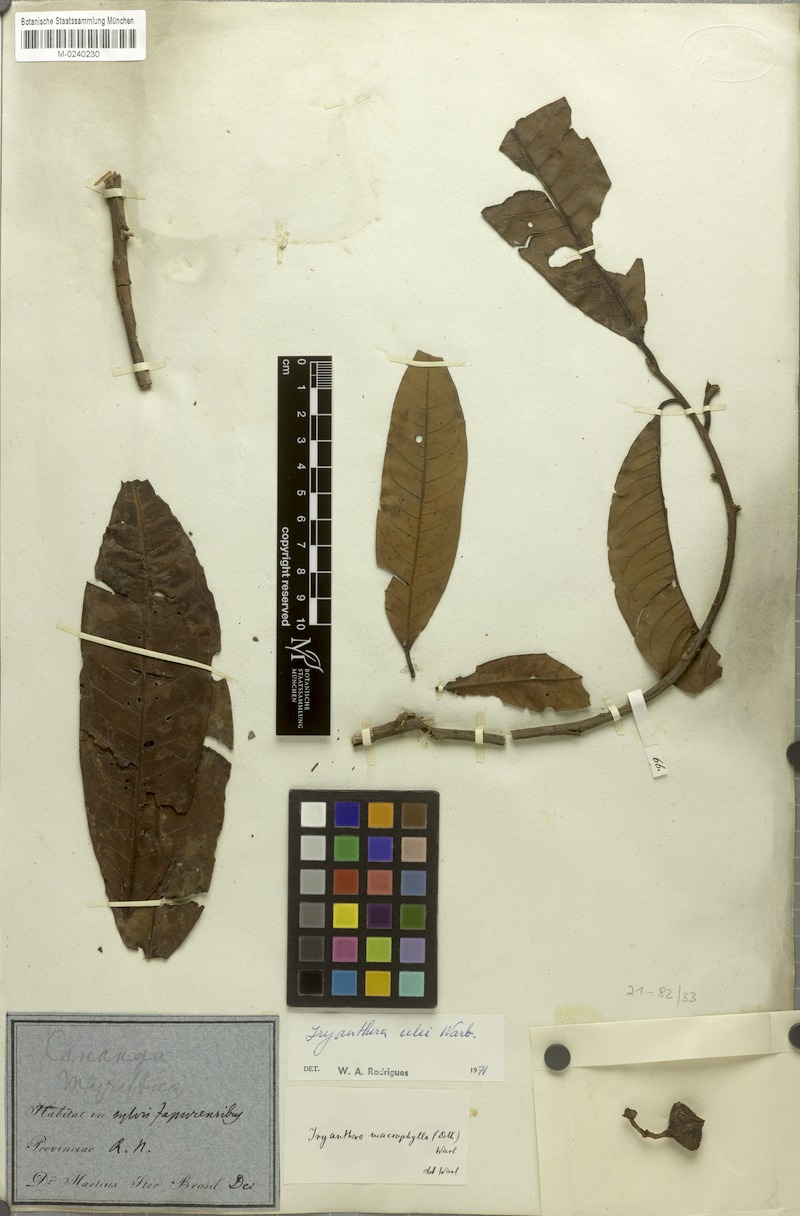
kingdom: Plantae
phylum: Tracheophyta
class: Magnoliopsida
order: Magnoliales
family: Myristicaceae
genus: Iryanthera
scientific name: Iryanthera hostmannii
